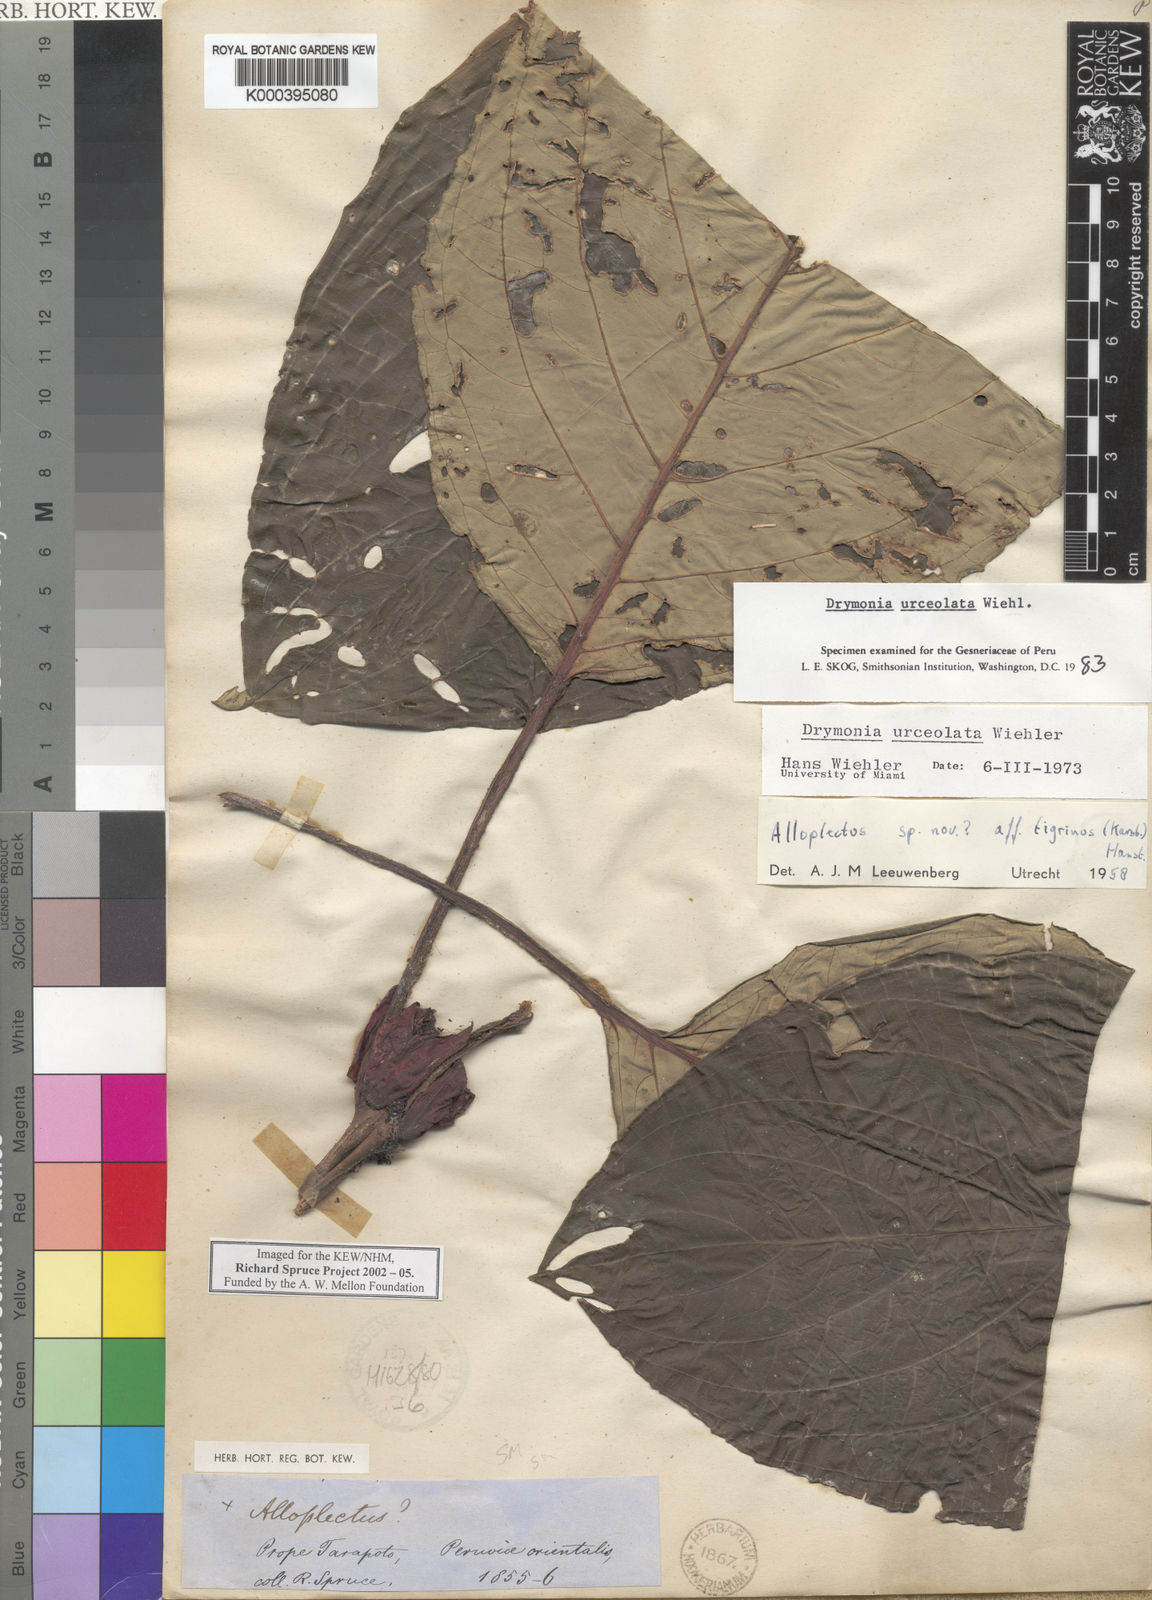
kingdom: Plantae
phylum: Tracheophyta
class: Magnoliopsida
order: Lamiales
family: Gesneriaceae
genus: Drymonia
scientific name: Drymonia urceolata
